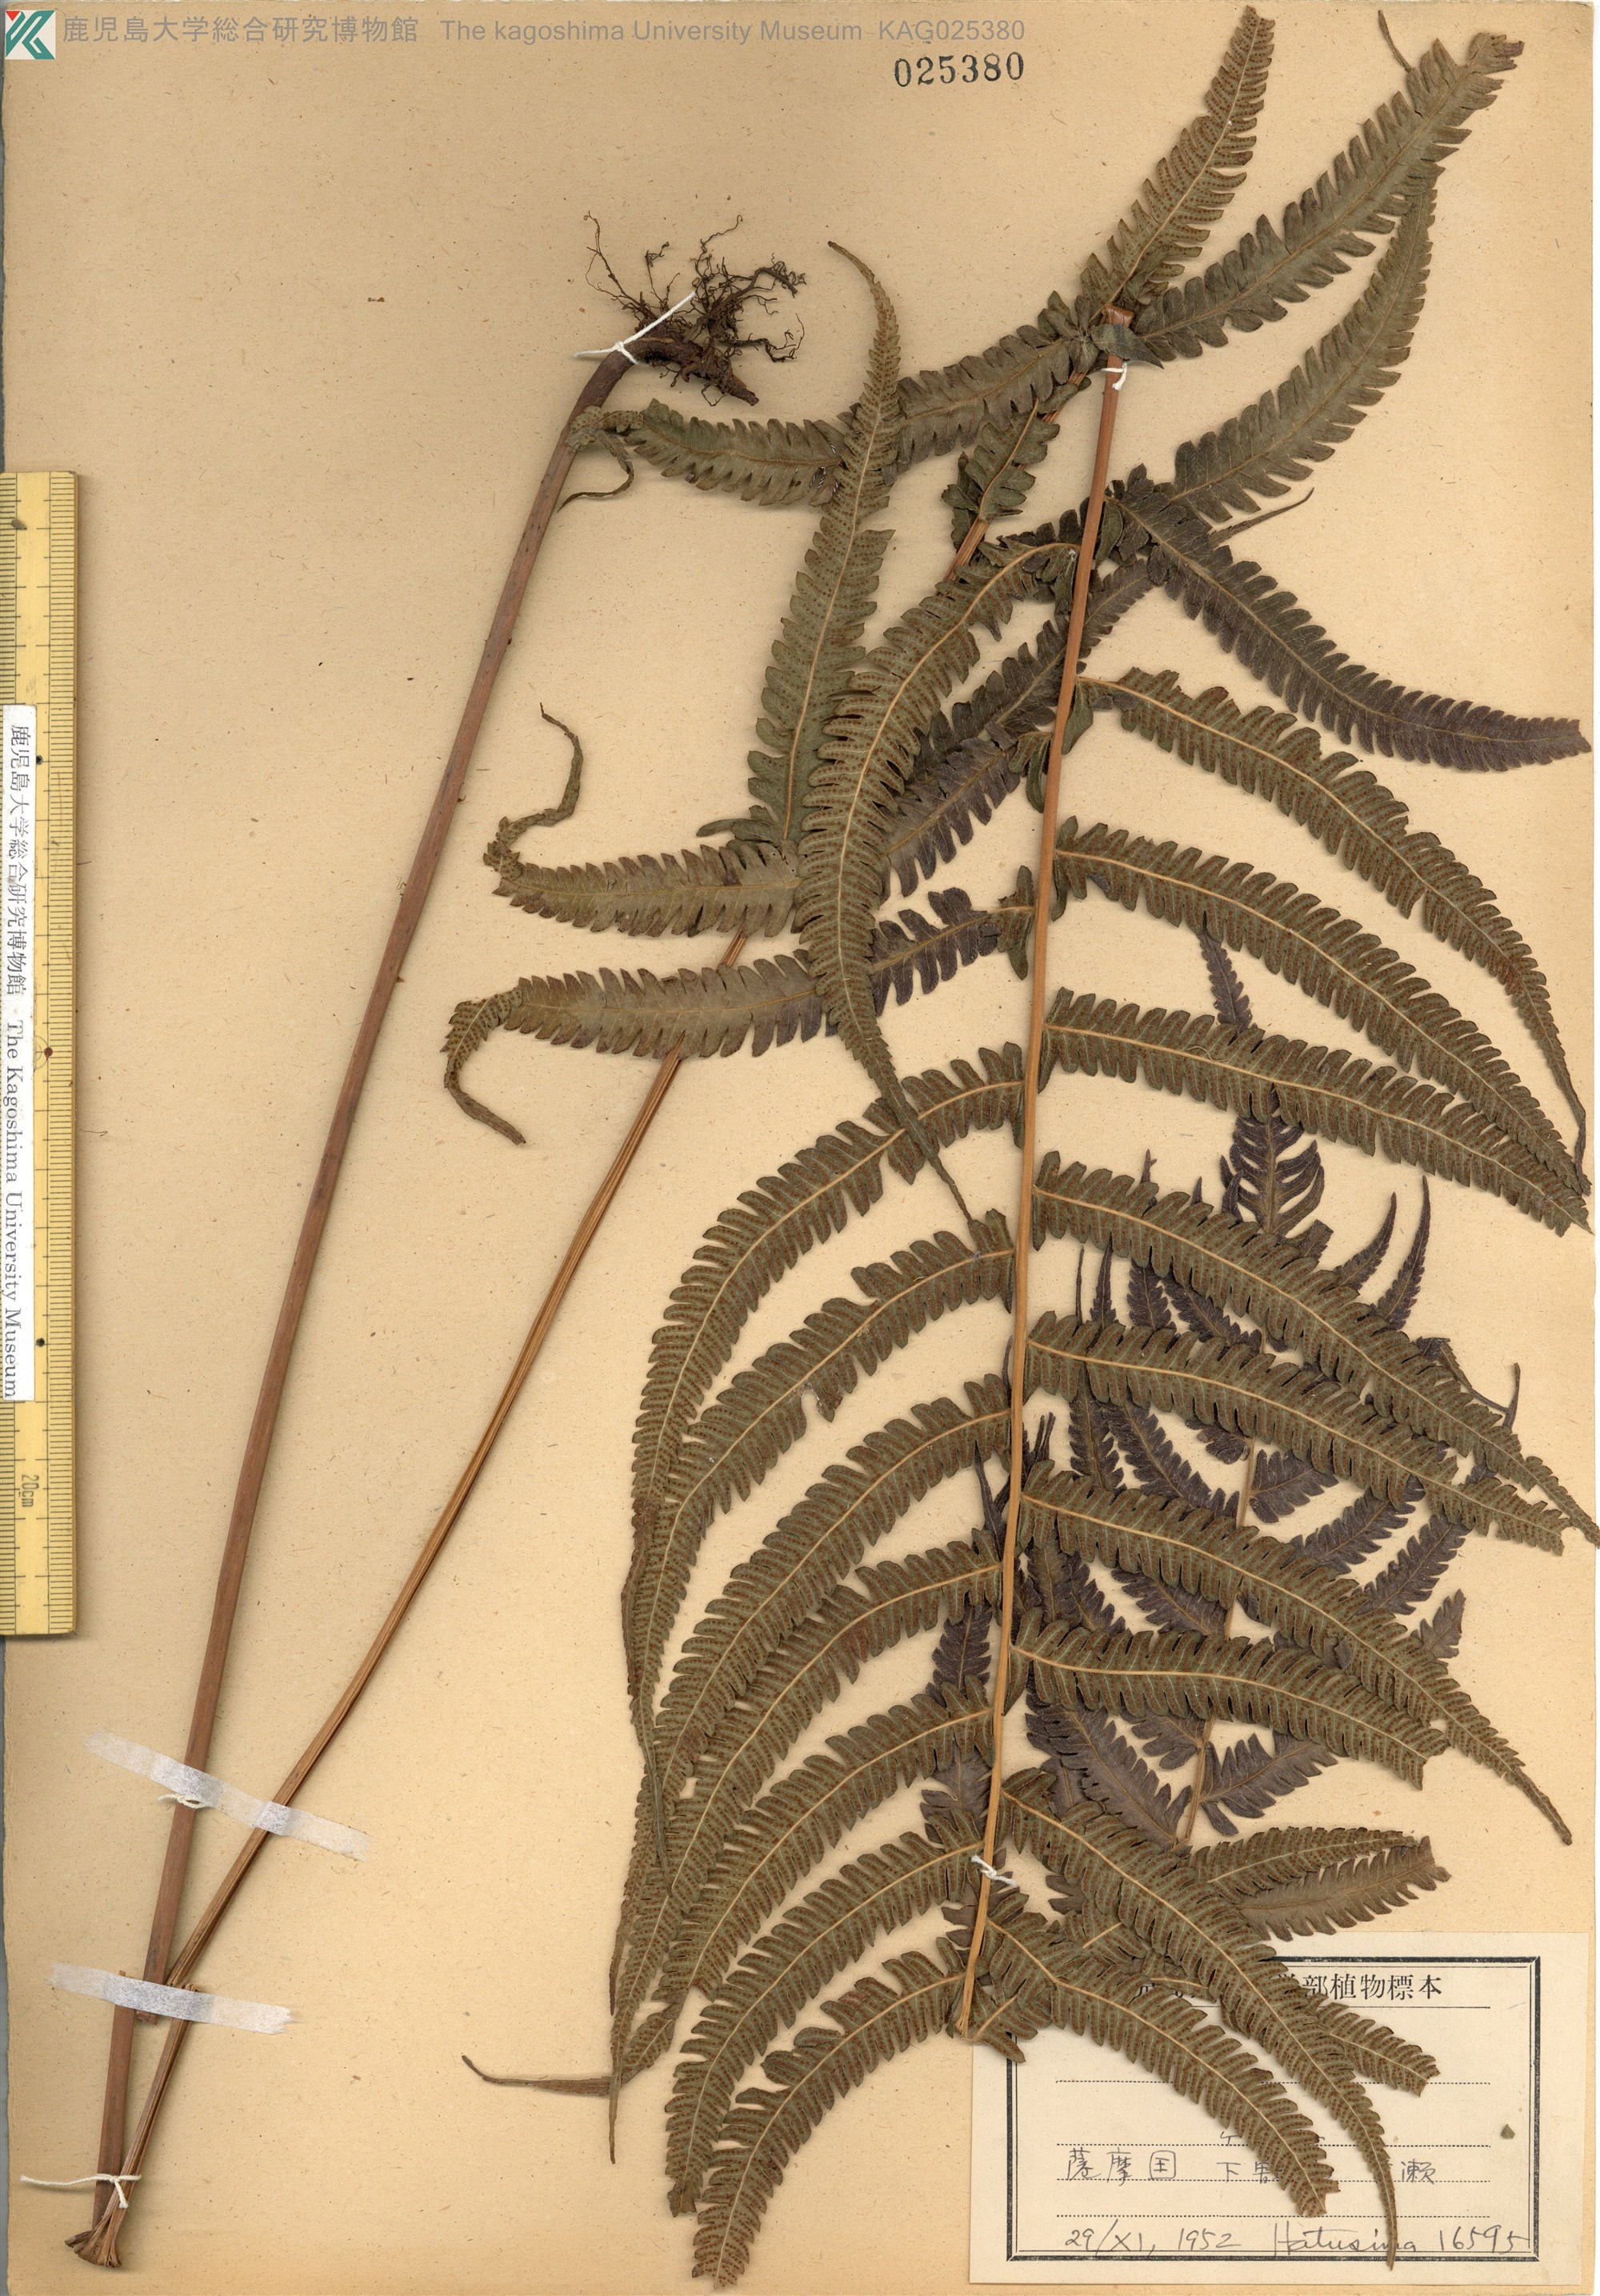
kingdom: Plantae
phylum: Tracheophyta
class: Polypodiopsida
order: Polypodiales
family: Thelypteridaceae
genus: Christella
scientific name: Christella acuminata
